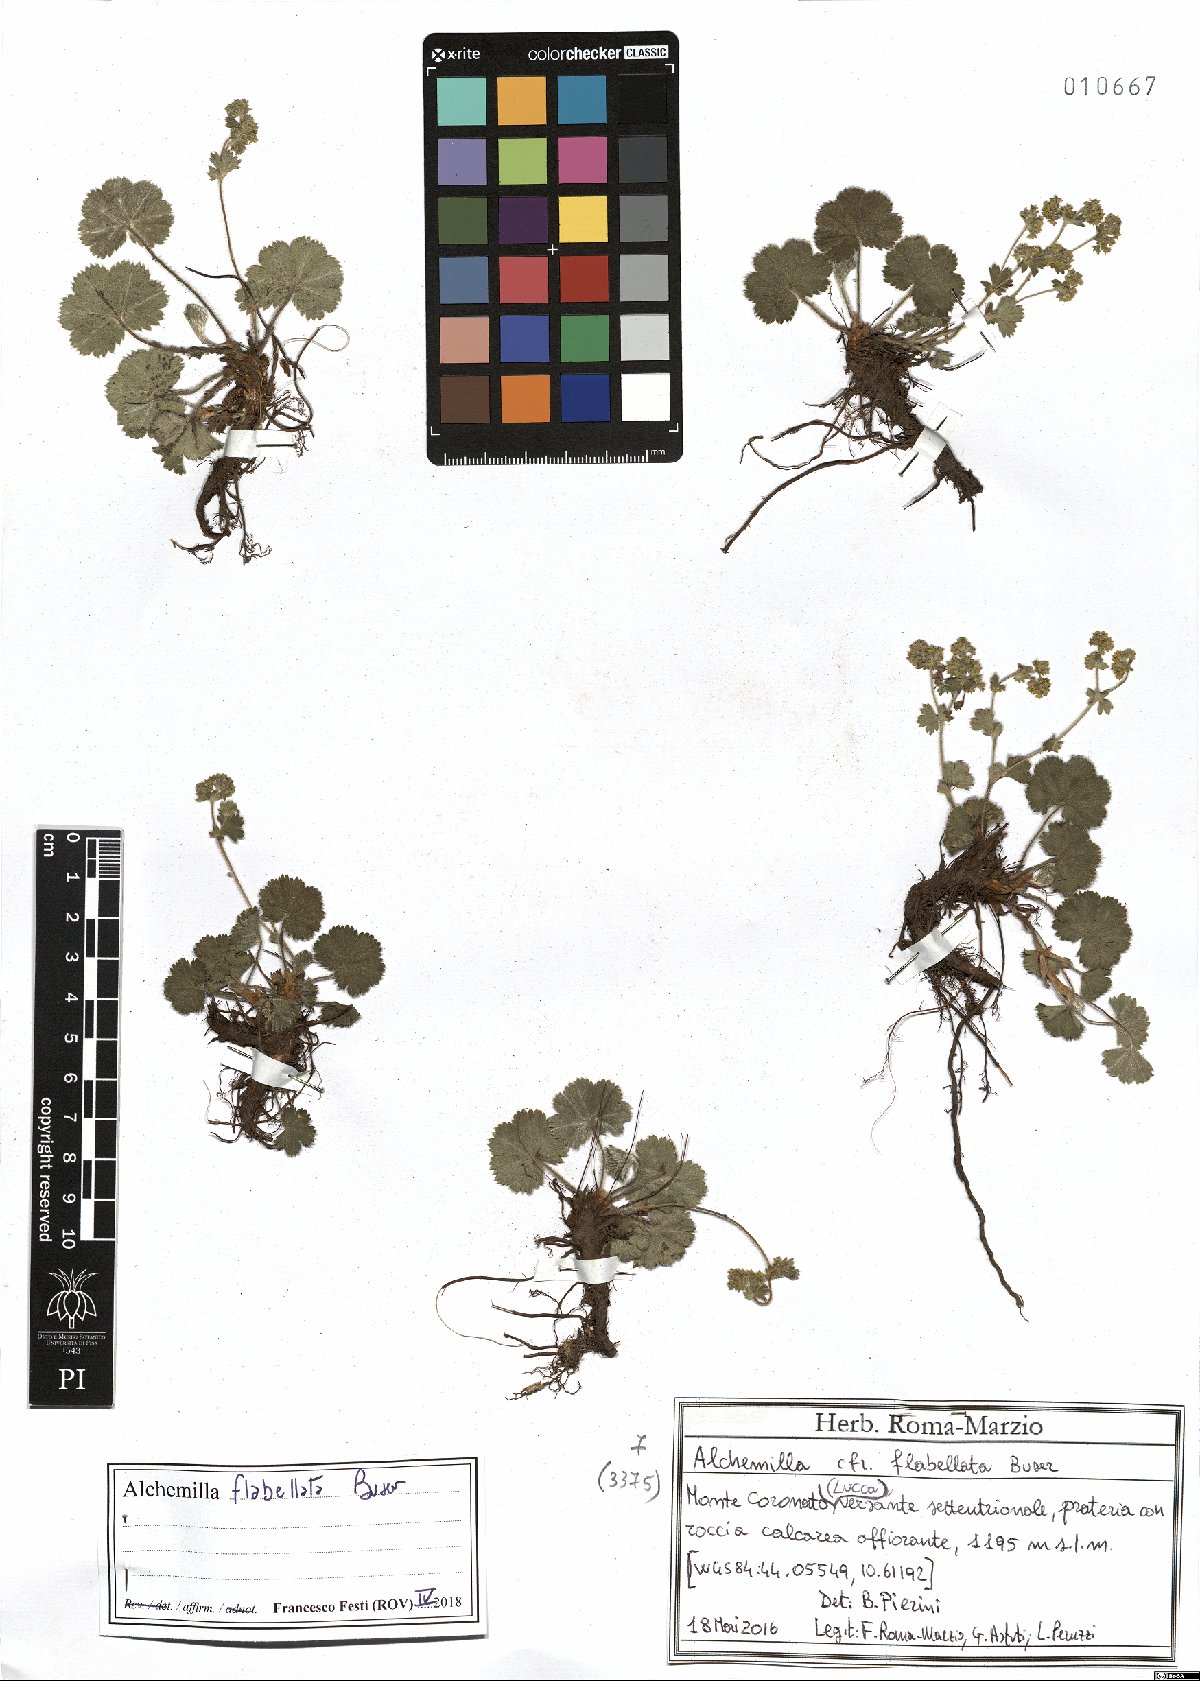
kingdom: Plantae
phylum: Tracheophyta
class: Magnoliopsida
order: Rosales
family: Rosaceae
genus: Alchemilla
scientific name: Alchemilla flabellata
